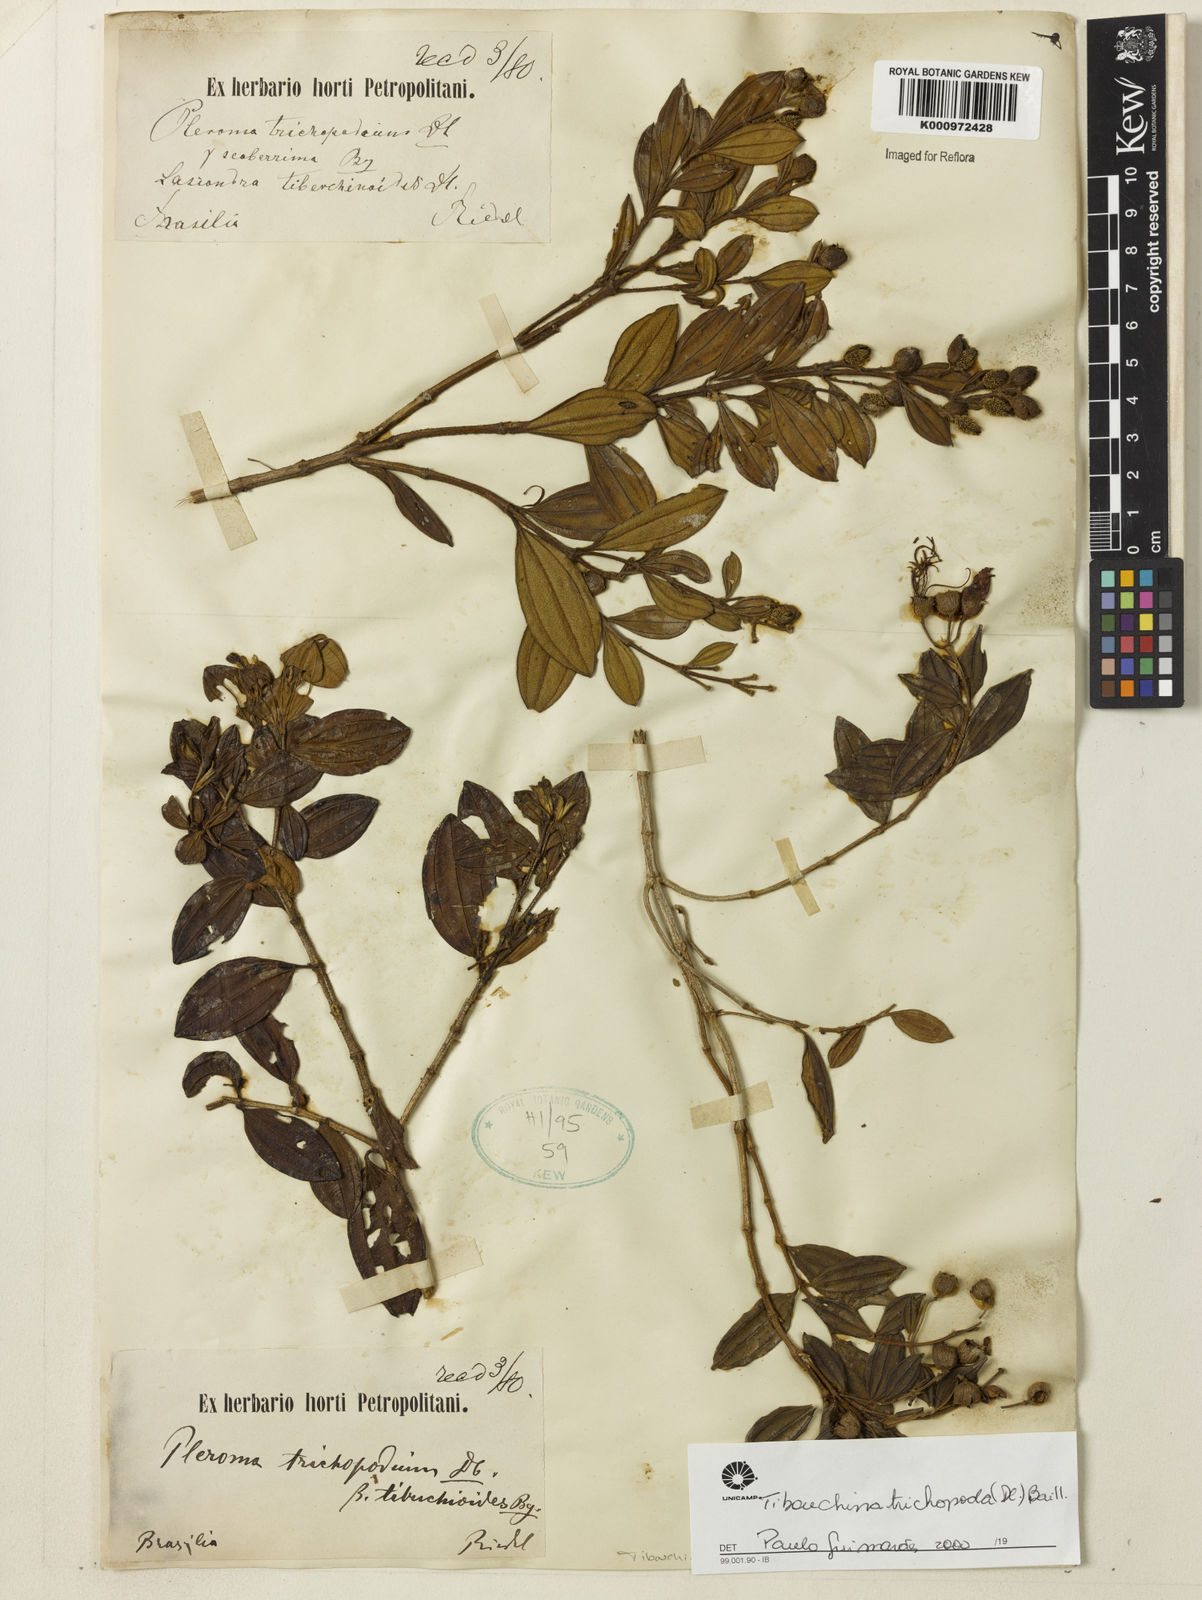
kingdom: Plantae
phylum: Tracheophyta
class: Magnoliopsida
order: Myrtales
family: Melastomataceae
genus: Pleroma
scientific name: Pleroma trichopodum
